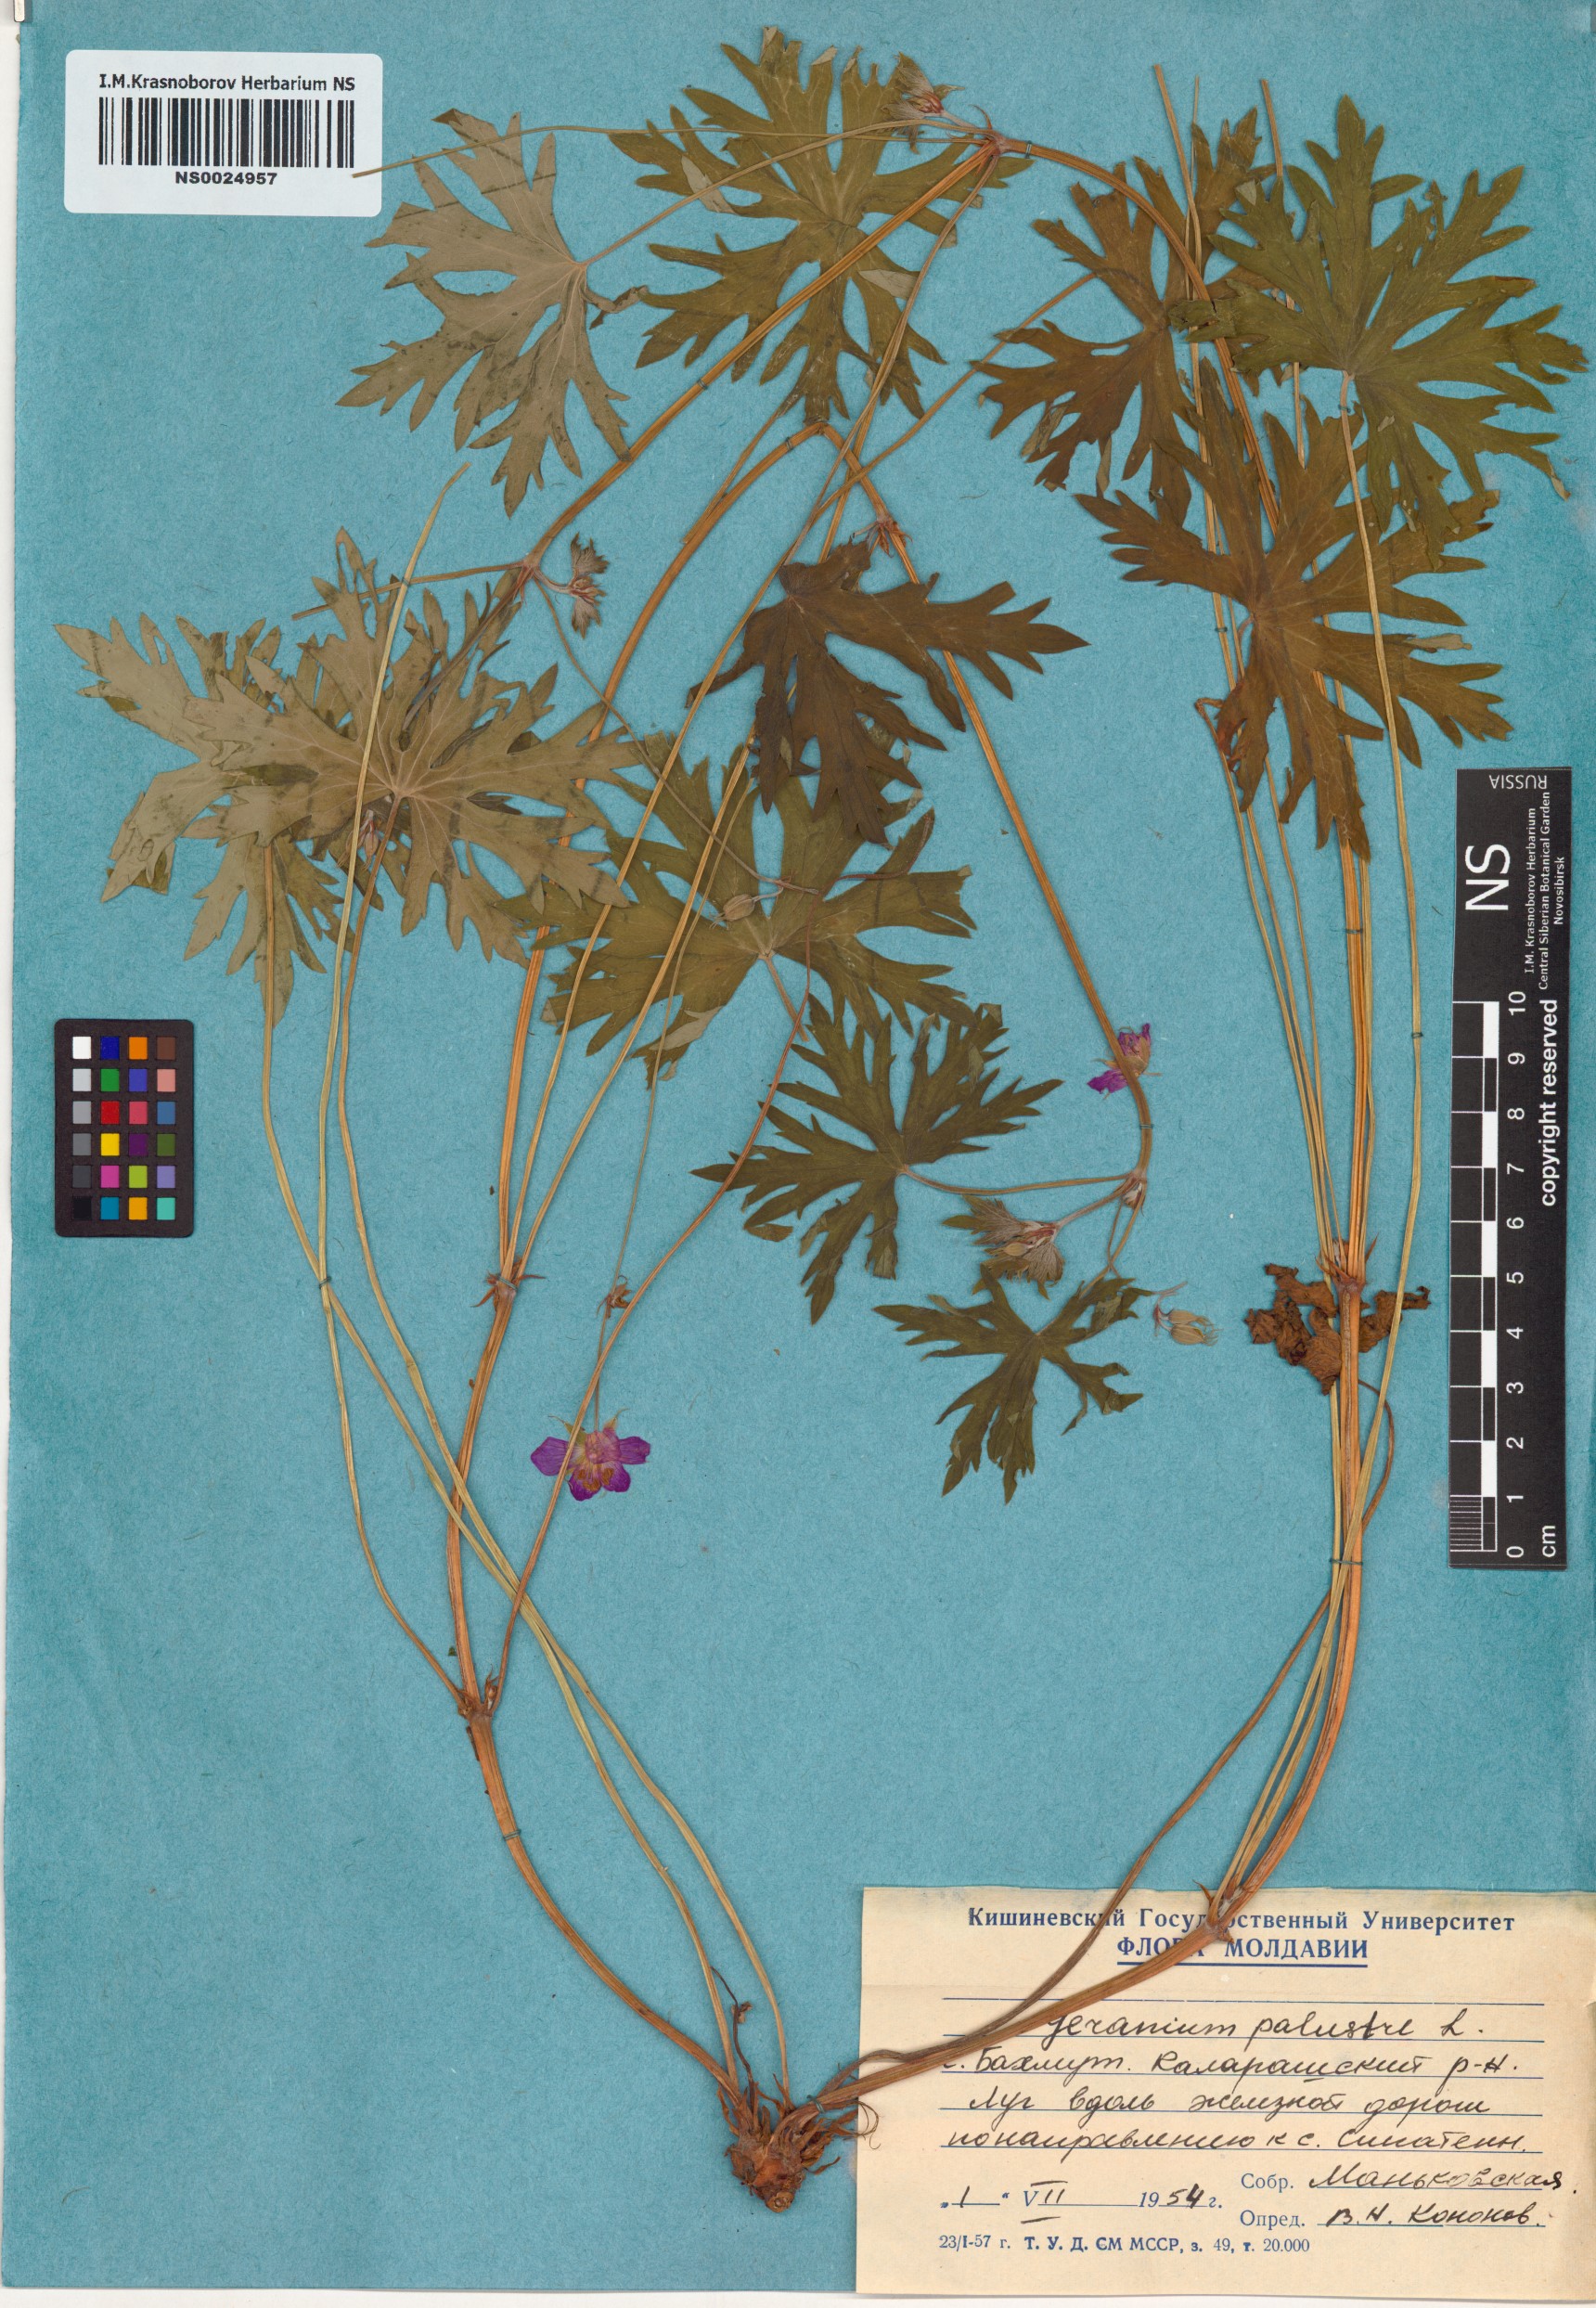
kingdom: Plantae
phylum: Tracheophyta
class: Magnoliopsida
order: Geraniales
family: Geraniaceae
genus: Geranium
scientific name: Geranium palustre
